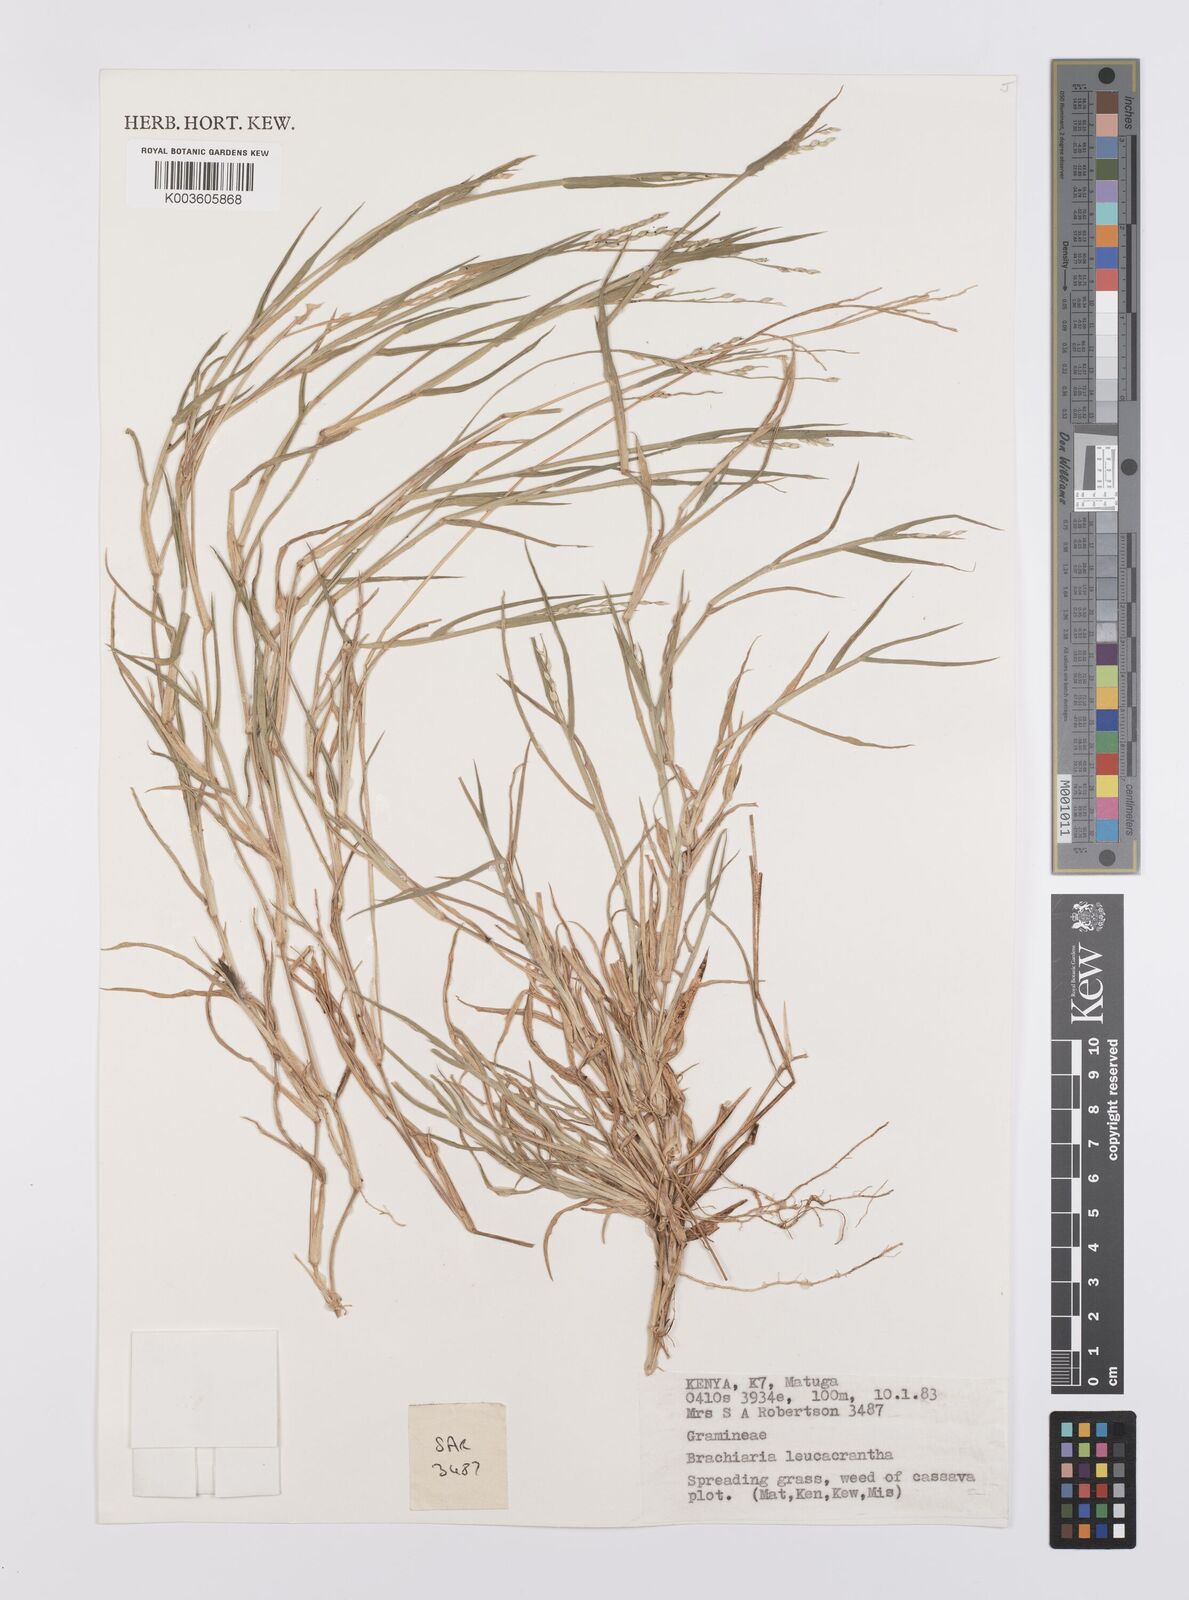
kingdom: Plantae
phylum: Tracheophyta
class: Liliopsida
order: Poales
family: Poaceae
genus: Urochloa
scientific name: Urochloa xantholeuca
